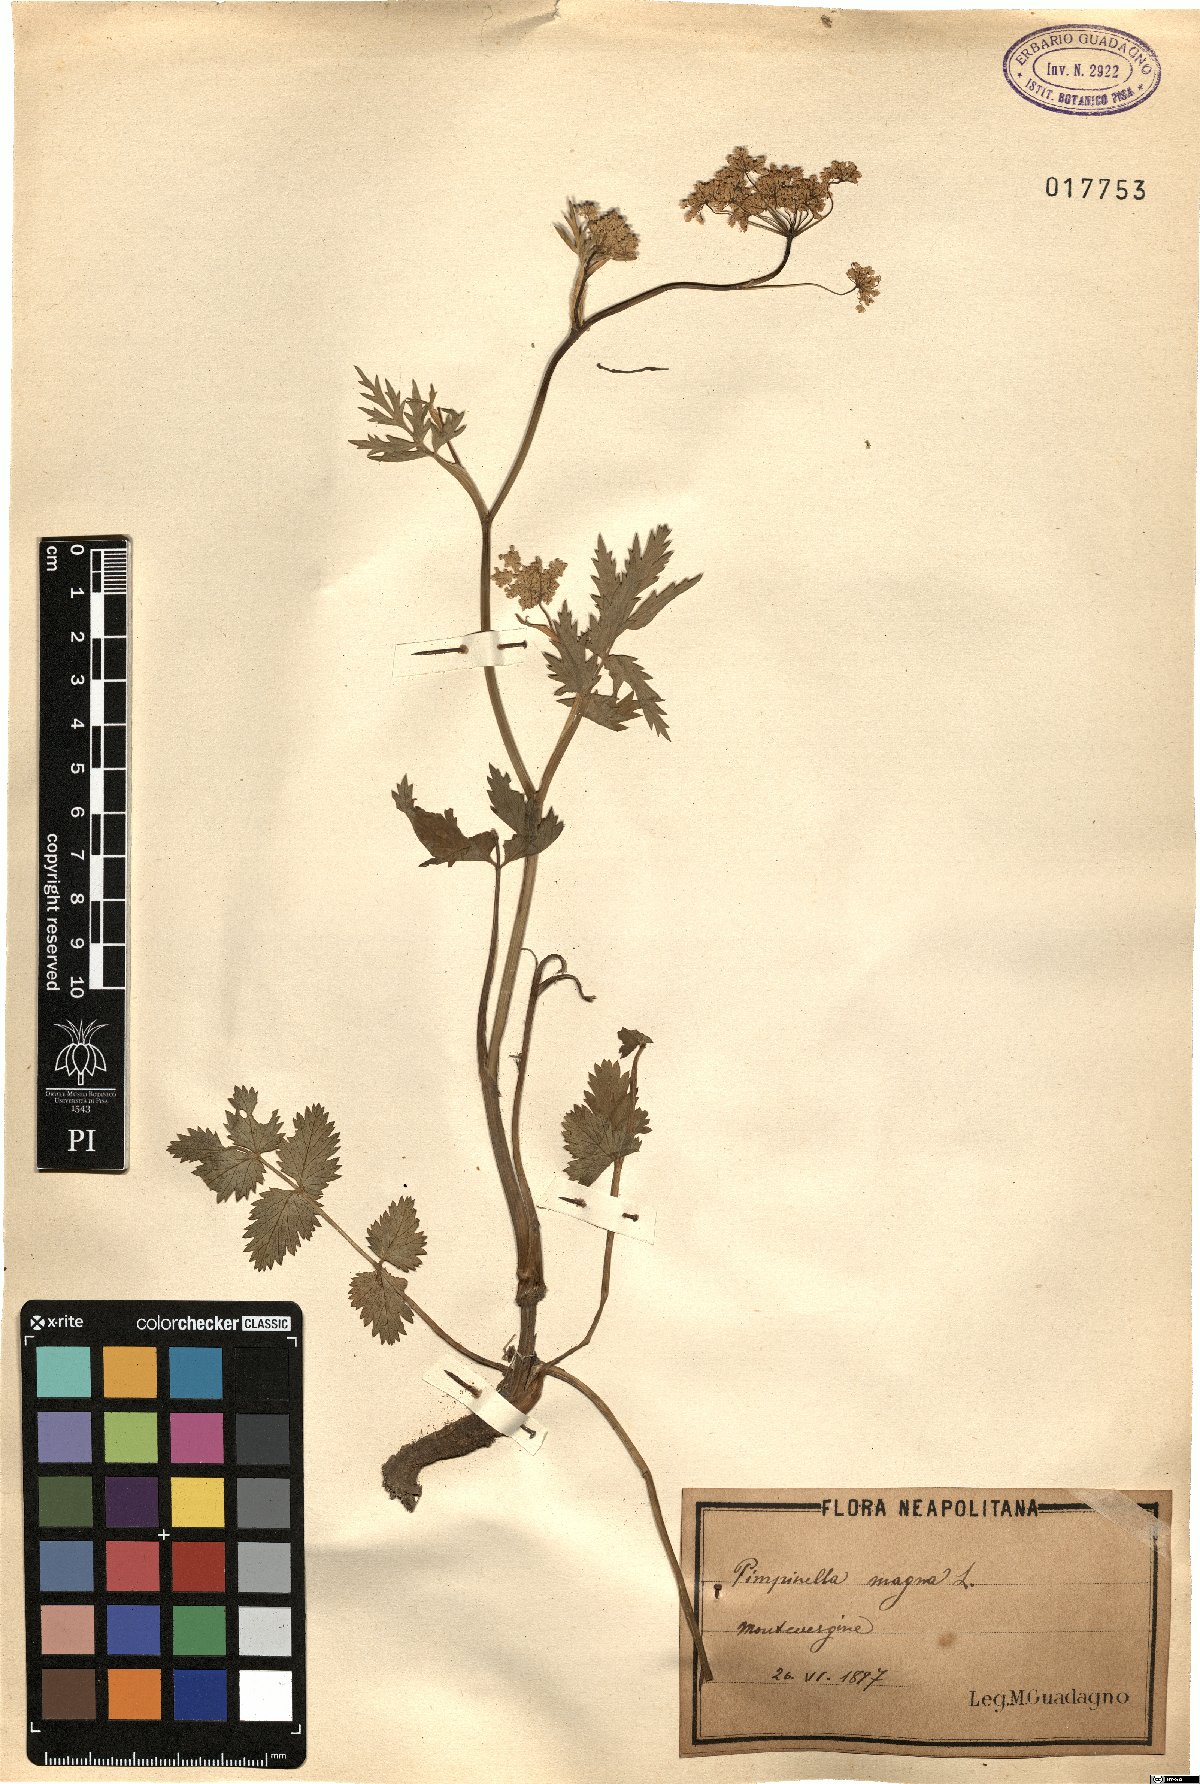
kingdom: Plantae
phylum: Tracheophyta
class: Magnoliopsida
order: Apiales
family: Apiaceae
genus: Pimpinella
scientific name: Pimpinella major
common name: Greater burnet-saxifrage
